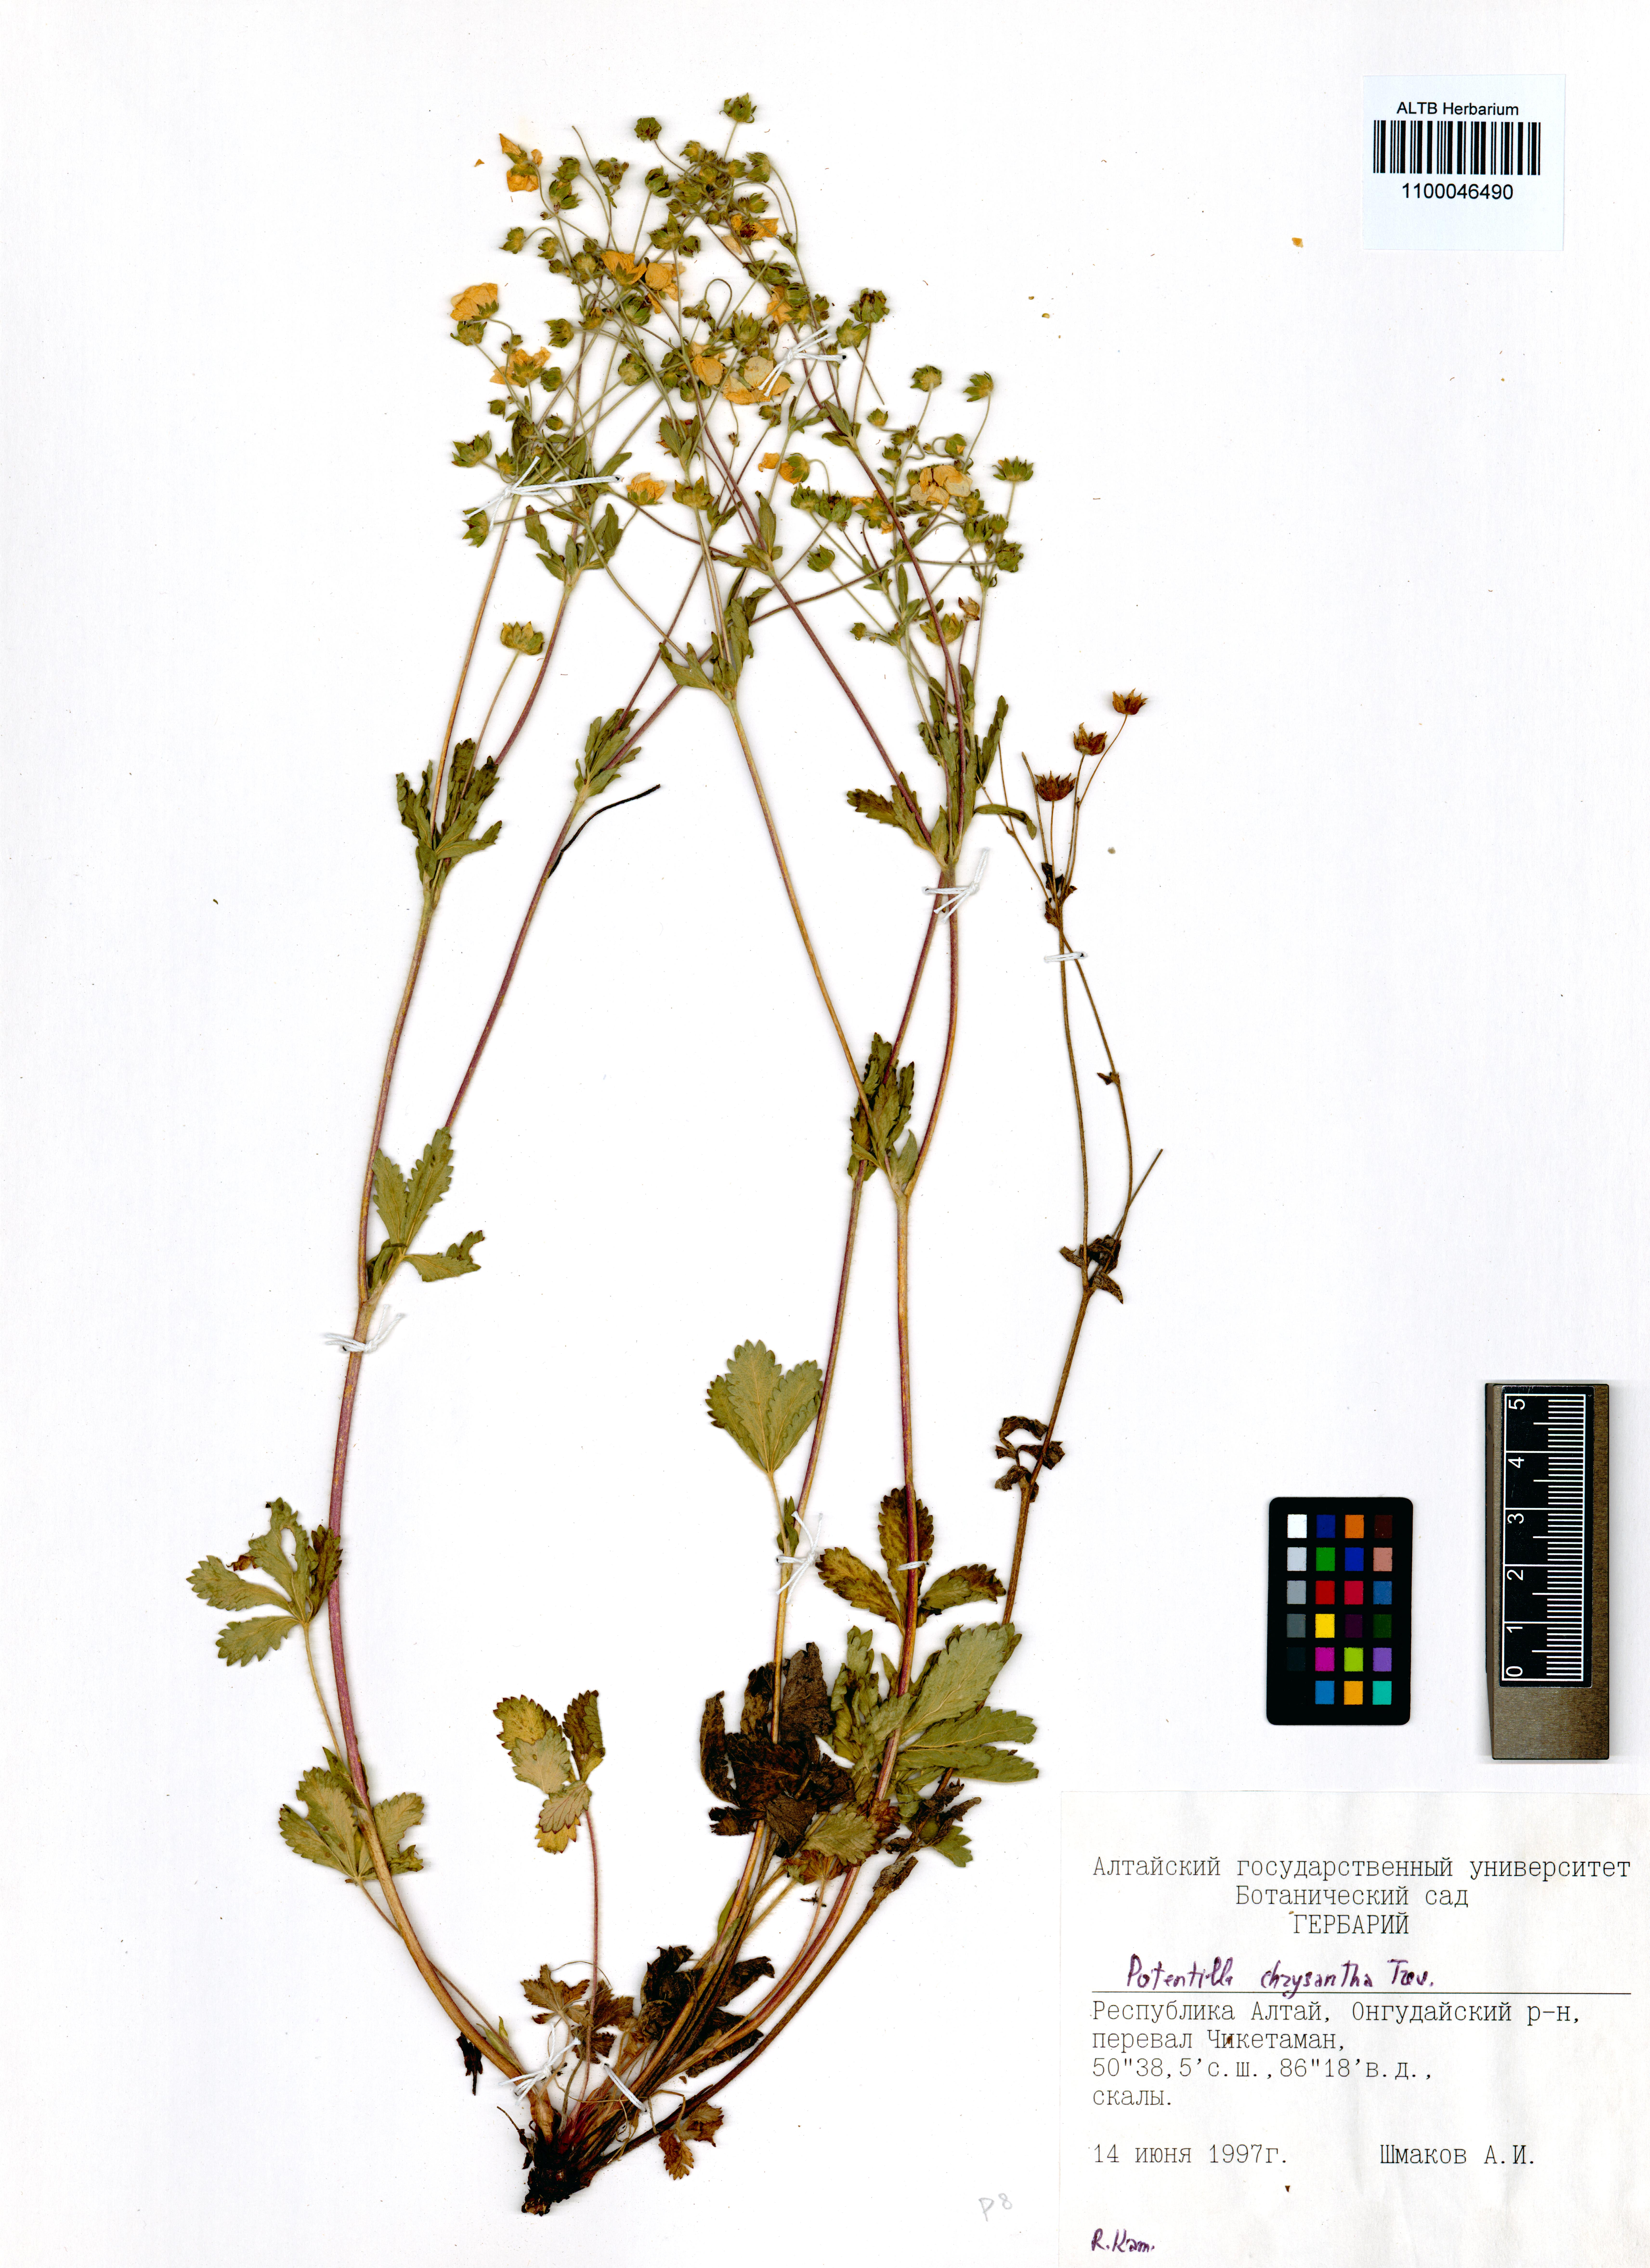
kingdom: Plantae
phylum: Tracheophyta
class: Magnoliopsida
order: Rosales
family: Rosaceae
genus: Potentilla
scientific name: Potentilla chrysantha
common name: Thuringian cinquefoil
